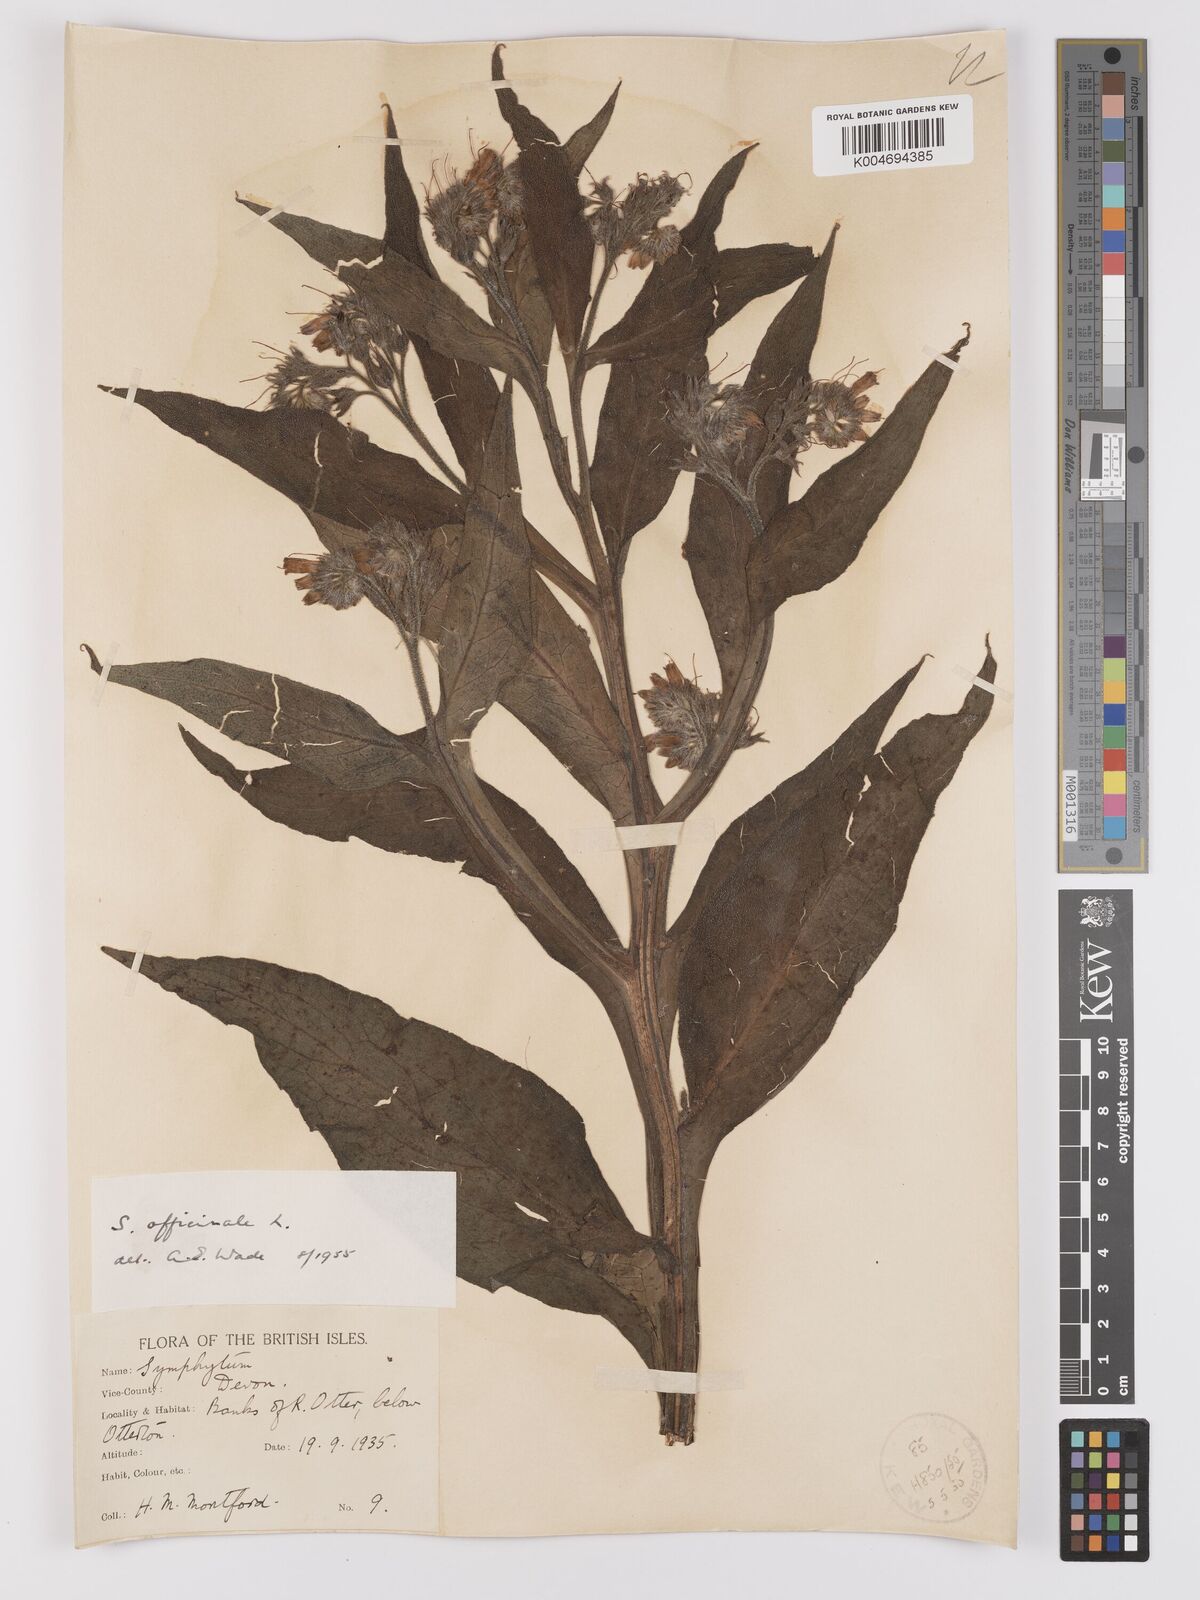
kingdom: Plantae
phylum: Tracheophyta
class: Magnoliopsida
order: Boraginales
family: Boraginaceae
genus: Symphytum
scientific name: Symphytum officinale
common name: Common comfrey
